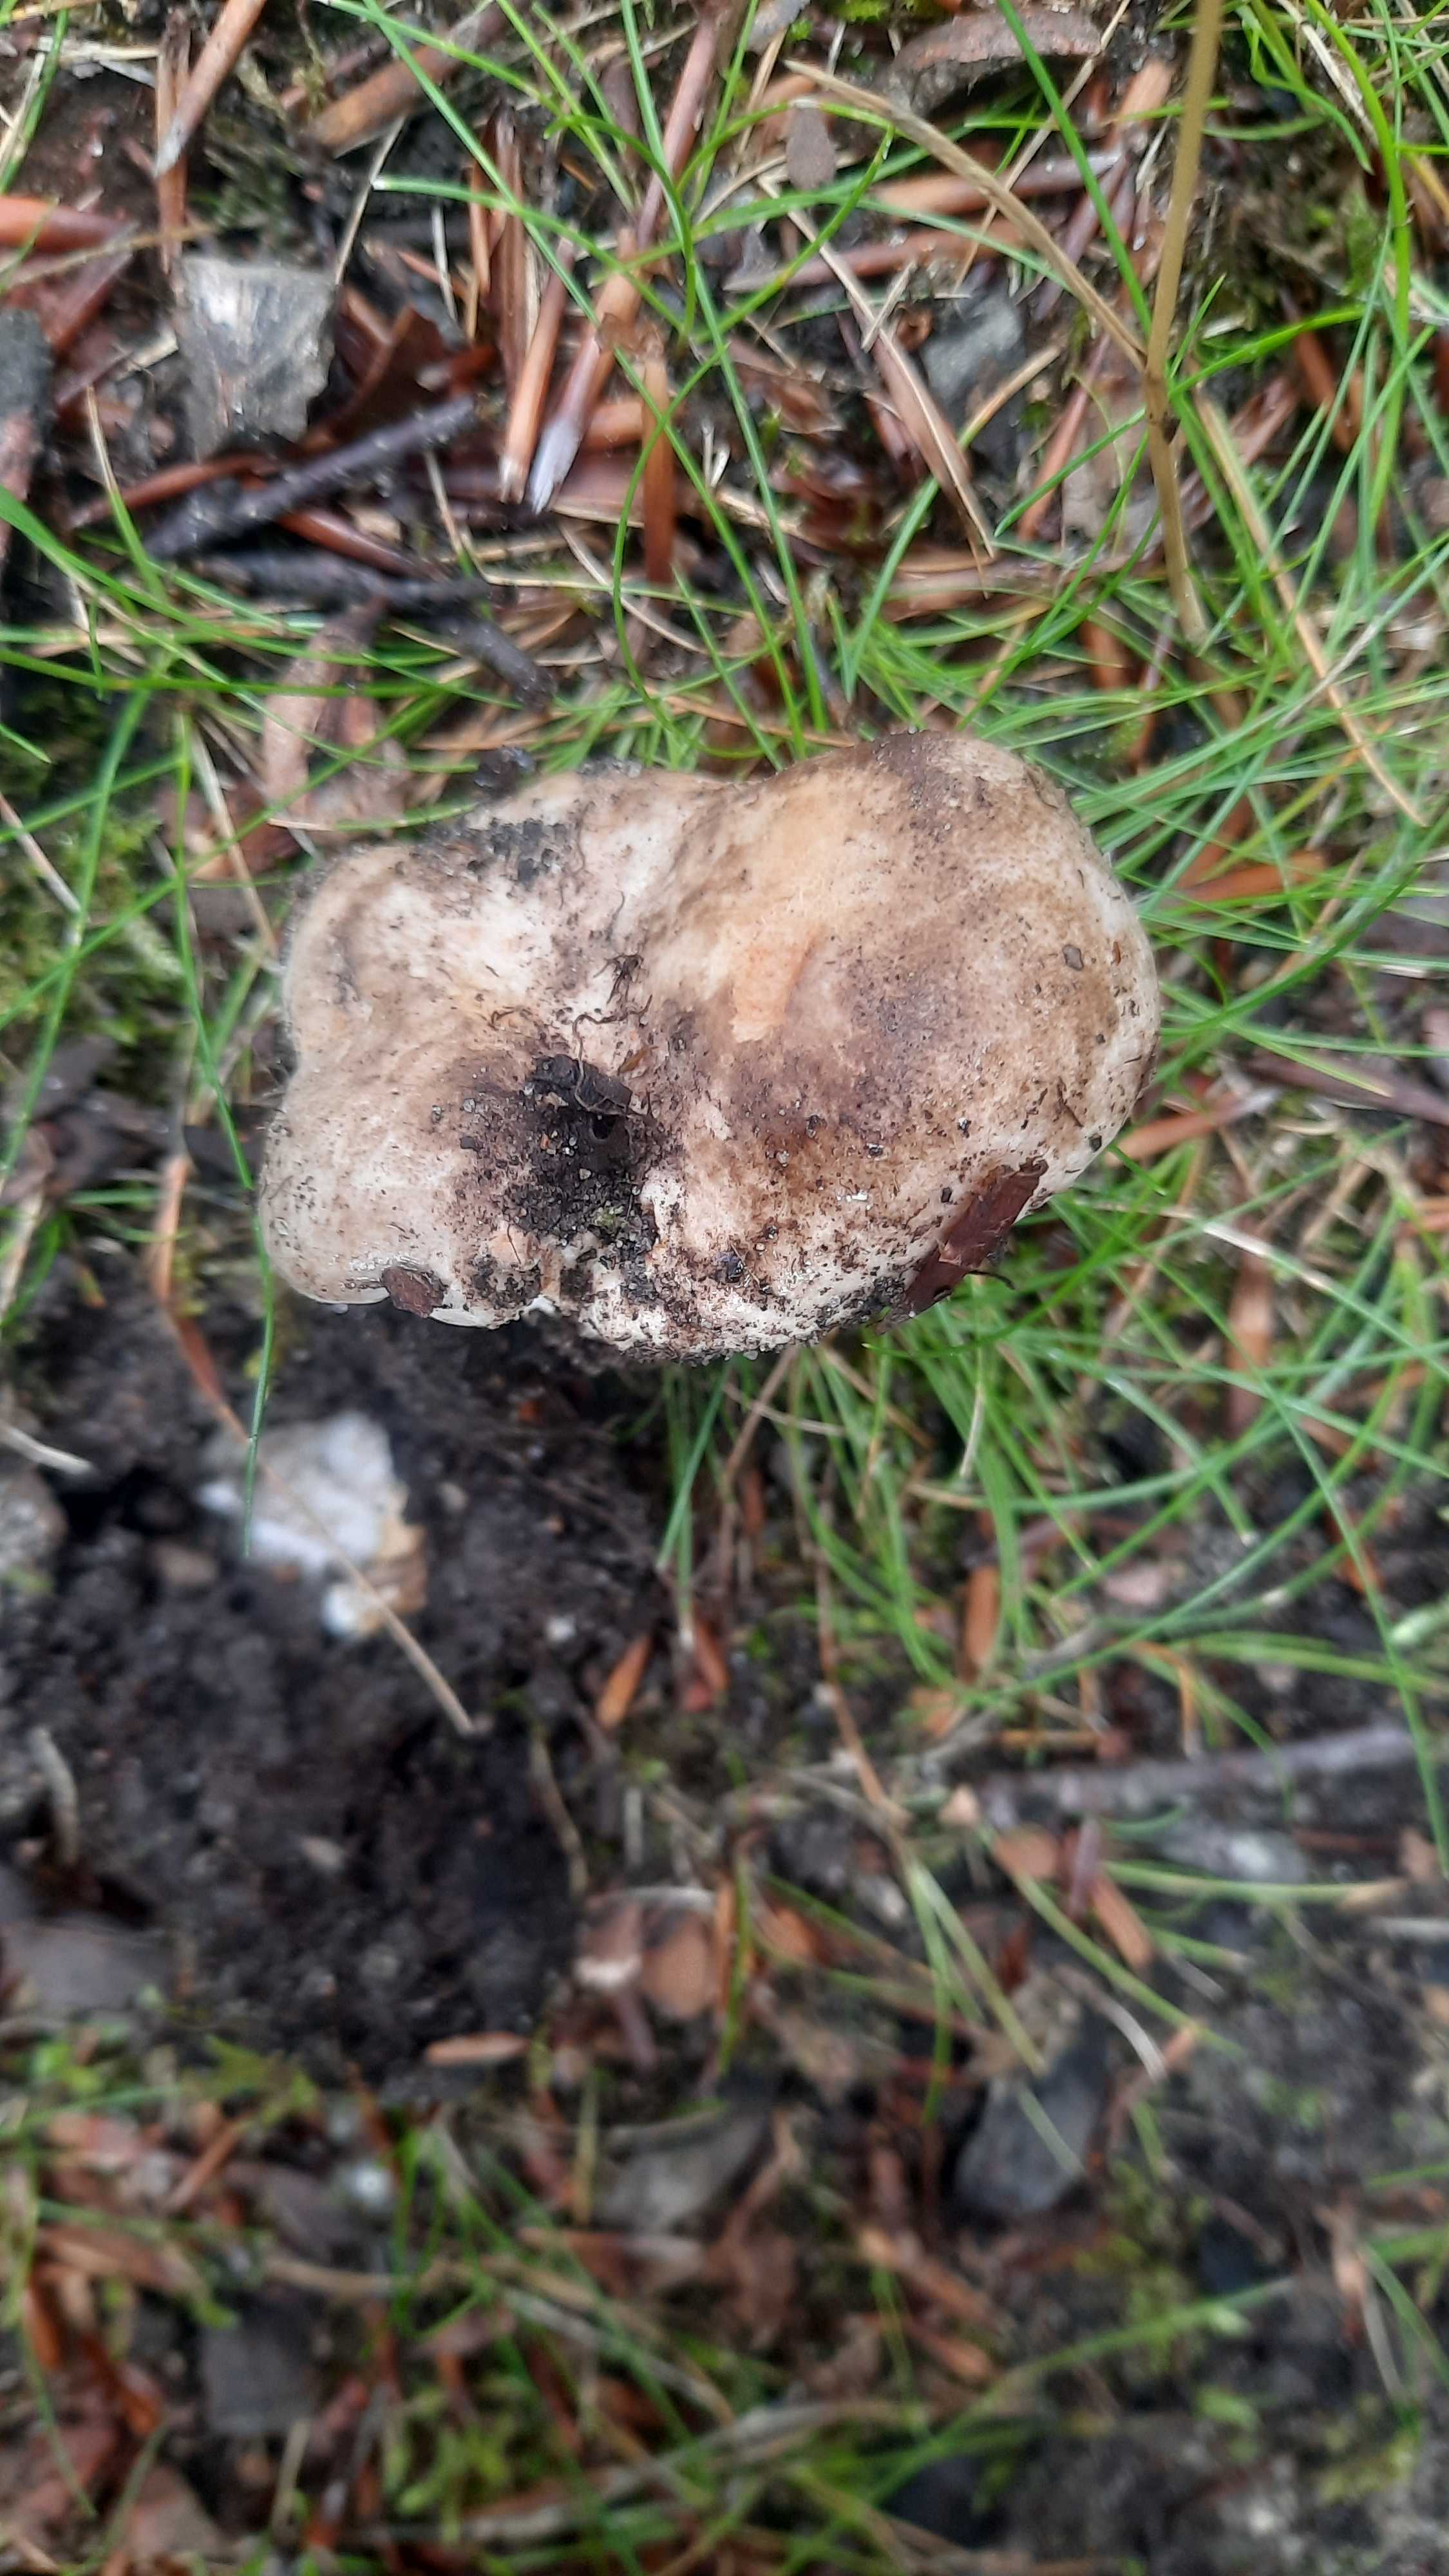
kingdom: Fungi
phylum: Basidiomycota
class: Agaricomycetes
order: Russulales
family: Russulaceae
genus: Russula
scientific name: Russula
